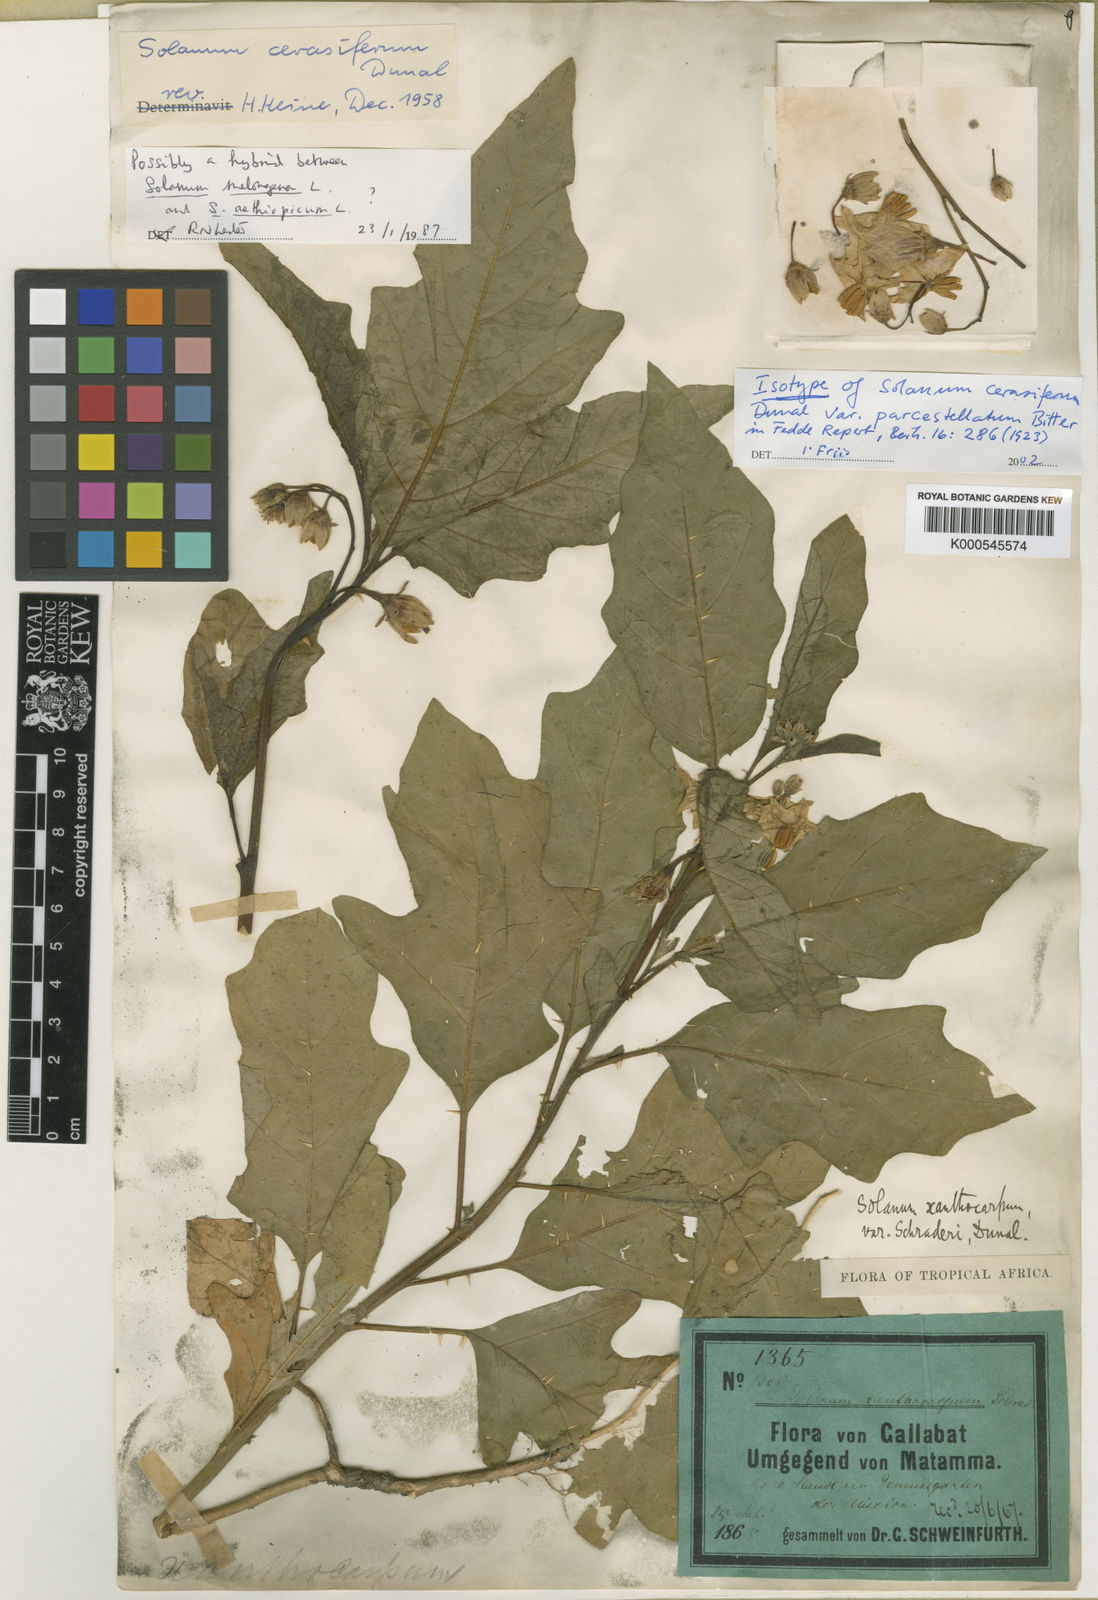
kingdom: Plantae
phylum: Tracheophyta
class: Magnoliopsida
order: Solanales
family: Solanaceae
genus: Solanum
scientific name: Solanum cerasiferum
